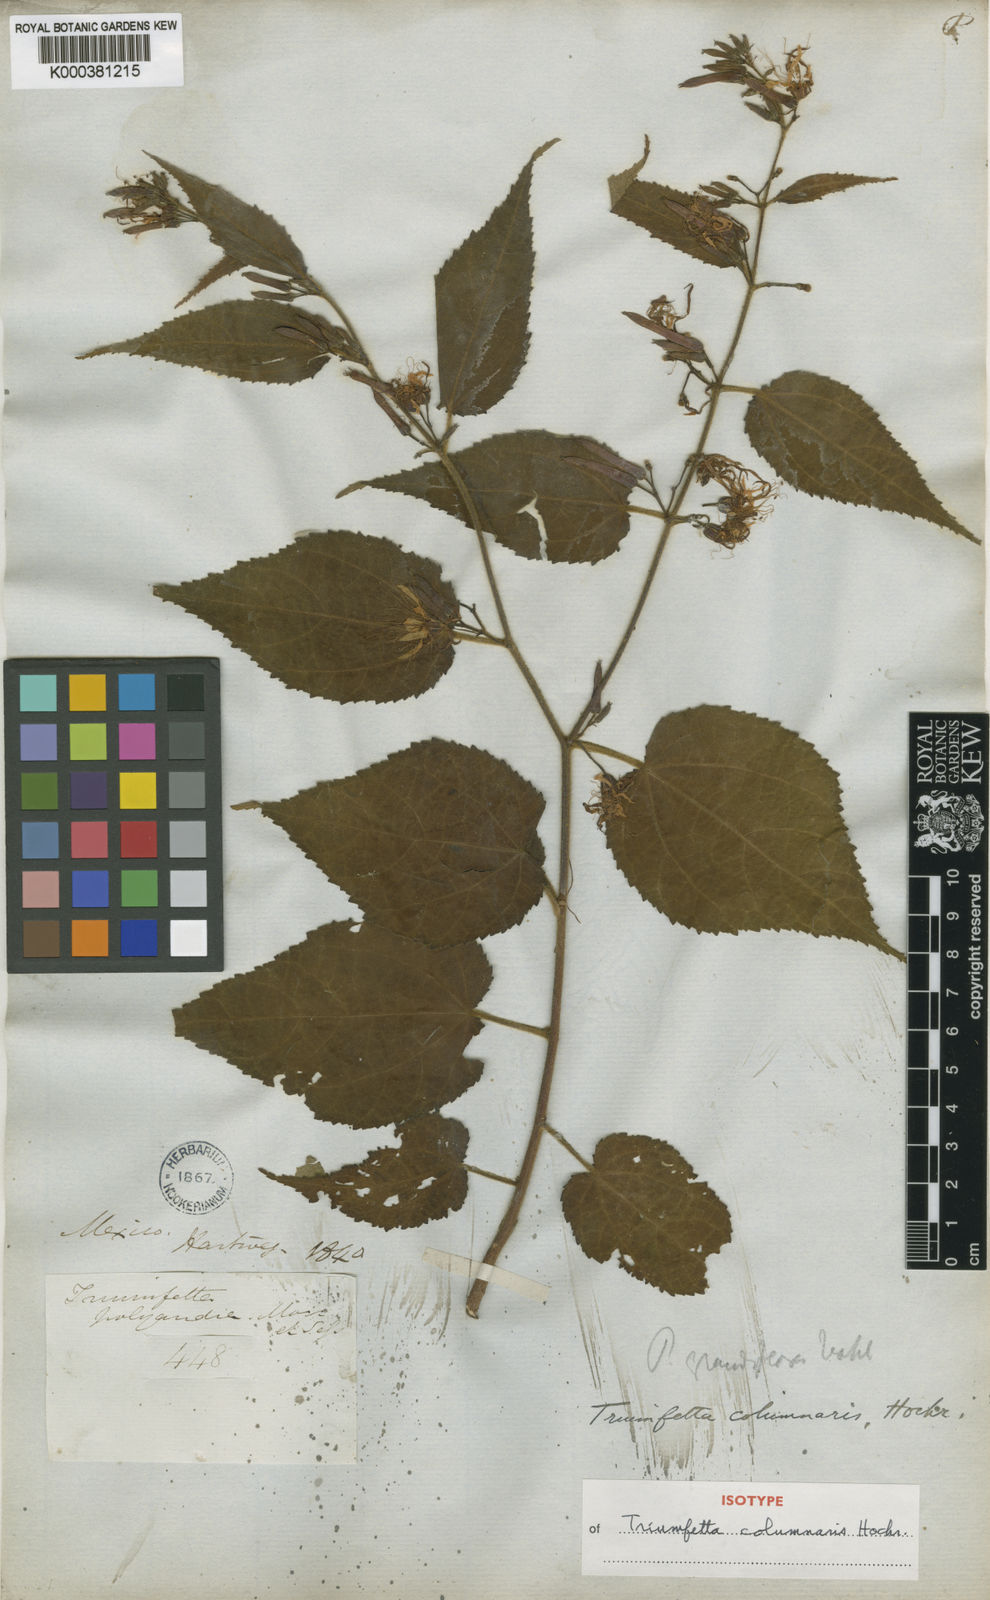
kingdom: Plantae
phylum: Tracheophyta
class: Magnoliopsida
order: Malvales
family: Malvaceae
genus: Triumfetta
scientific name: Triumfetta columnaris
